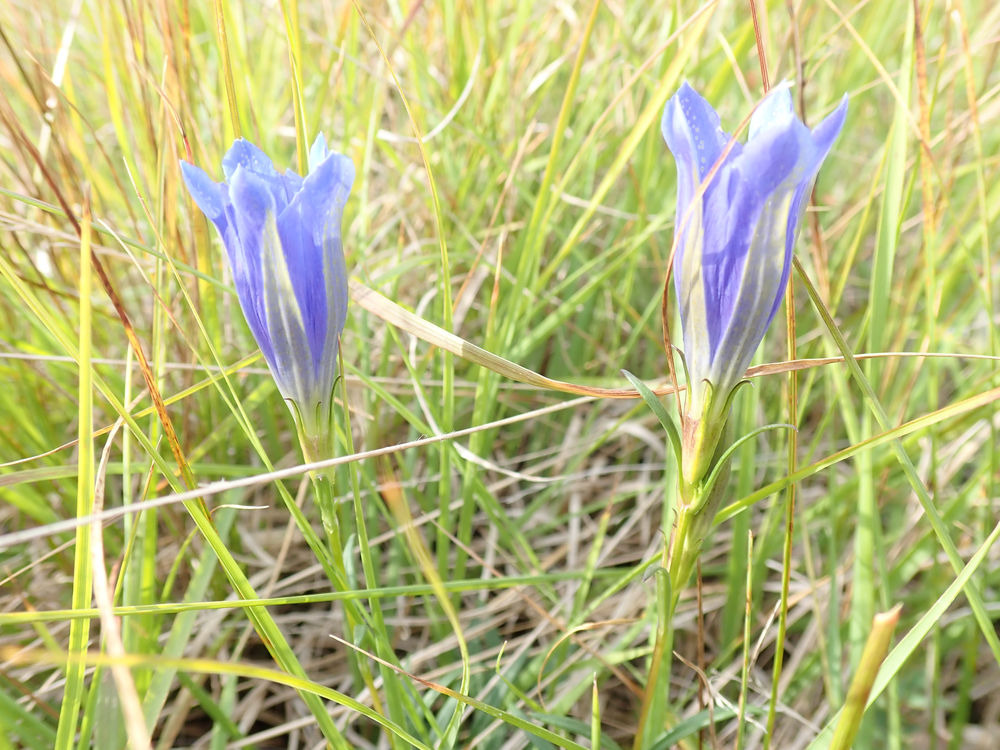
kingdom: Plantae
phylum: Tracheophyta
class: Magnoliopsida
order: Gentianales
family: Gentianaceae
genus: Gentiana
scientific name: Gentiana pneumonanthe
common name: Klokke-ensian
